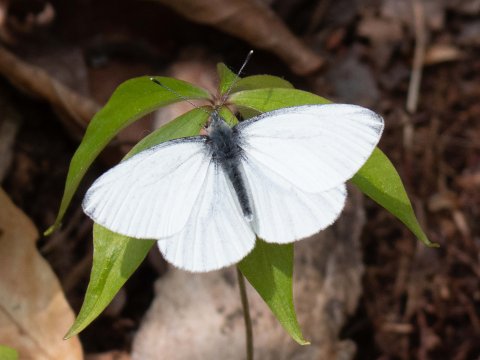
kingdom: Animalia
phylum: Arthropoda
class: Insecta
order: Lepidoptera
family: Pieridae
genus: Pieris
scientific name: Pieris oleracea
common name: Mustard White
